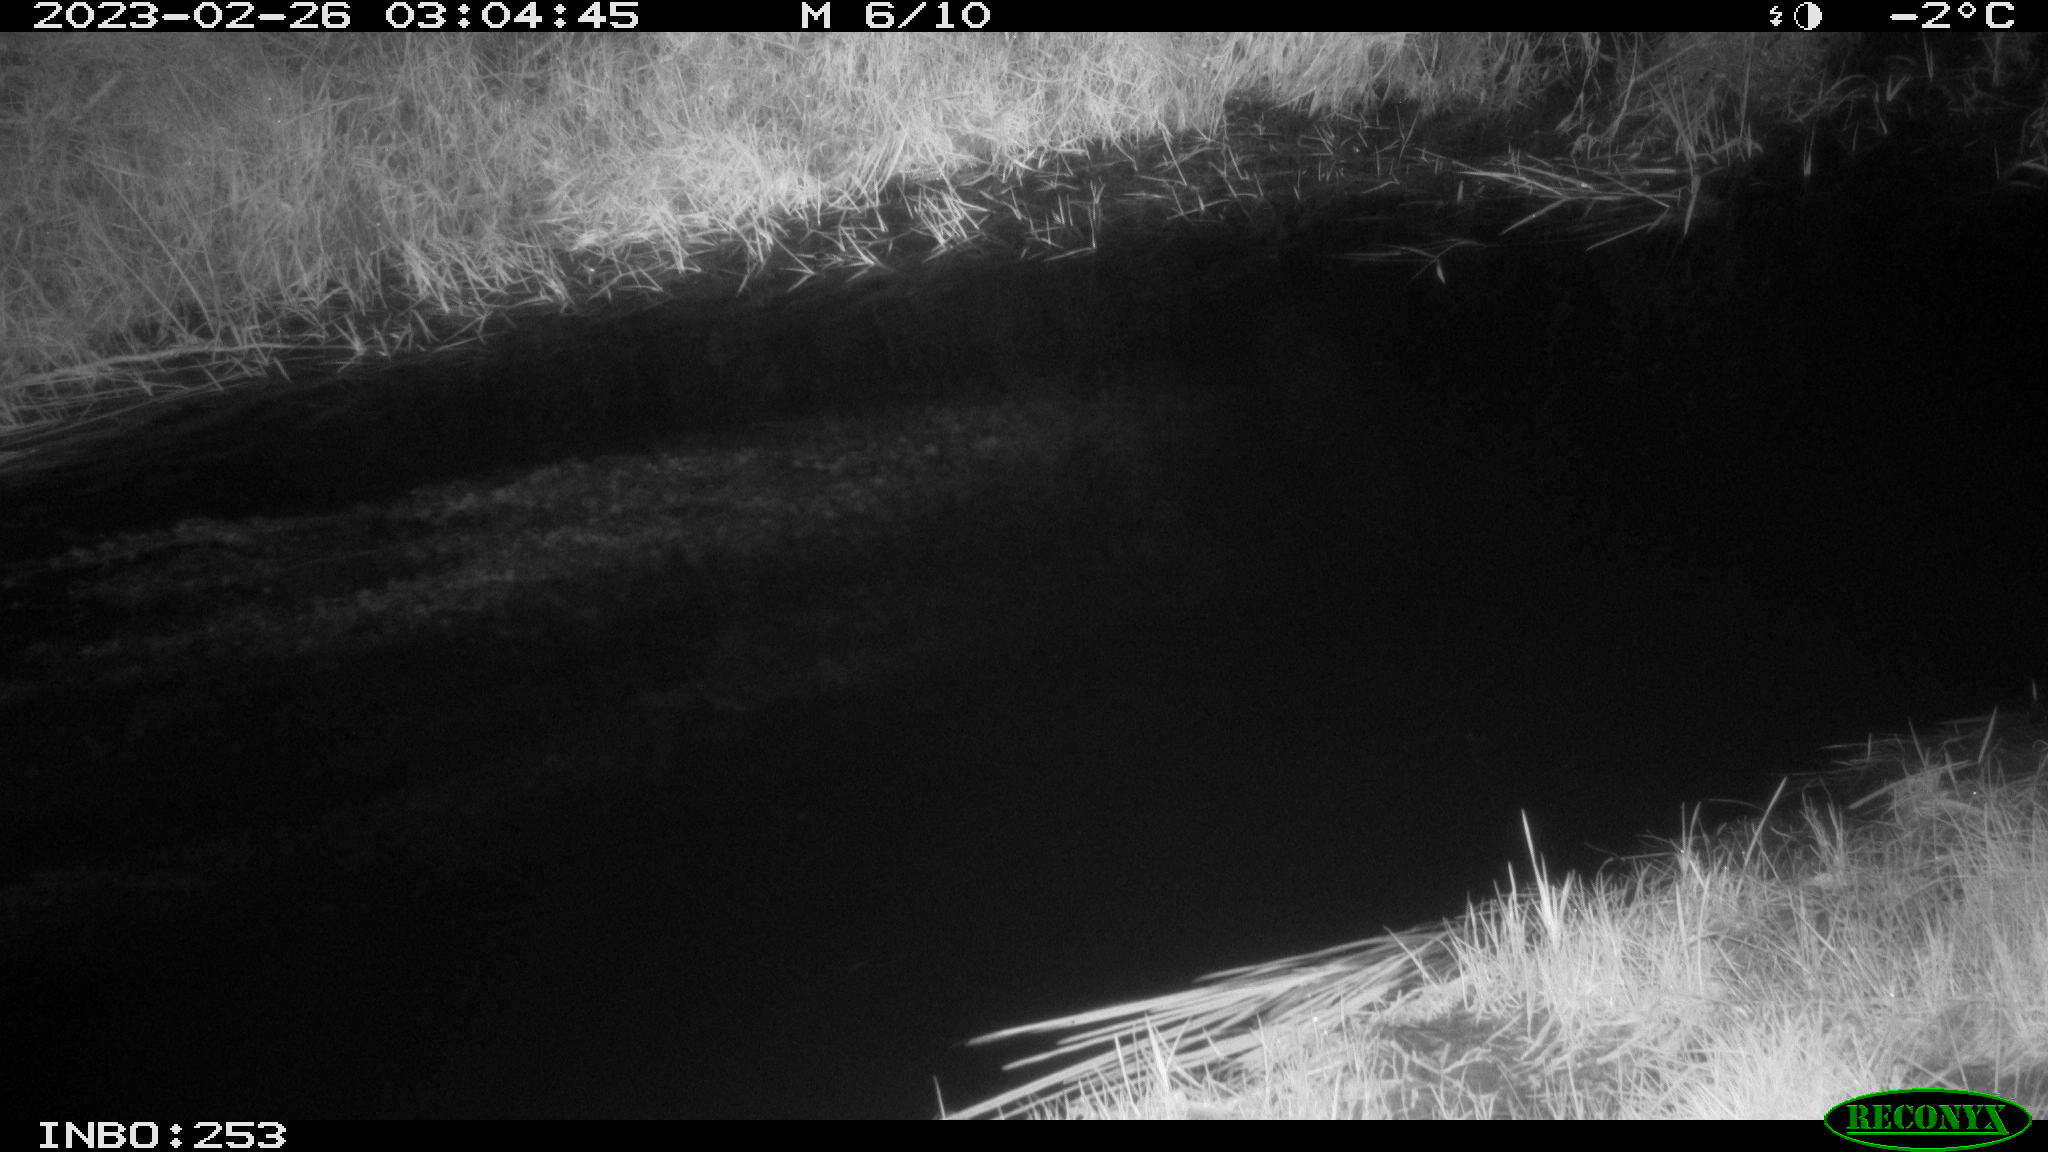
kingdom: Animalia
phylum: Chordata
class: Aves
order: Anseriformes
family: Anatidae
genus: Anas
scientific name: Anas
